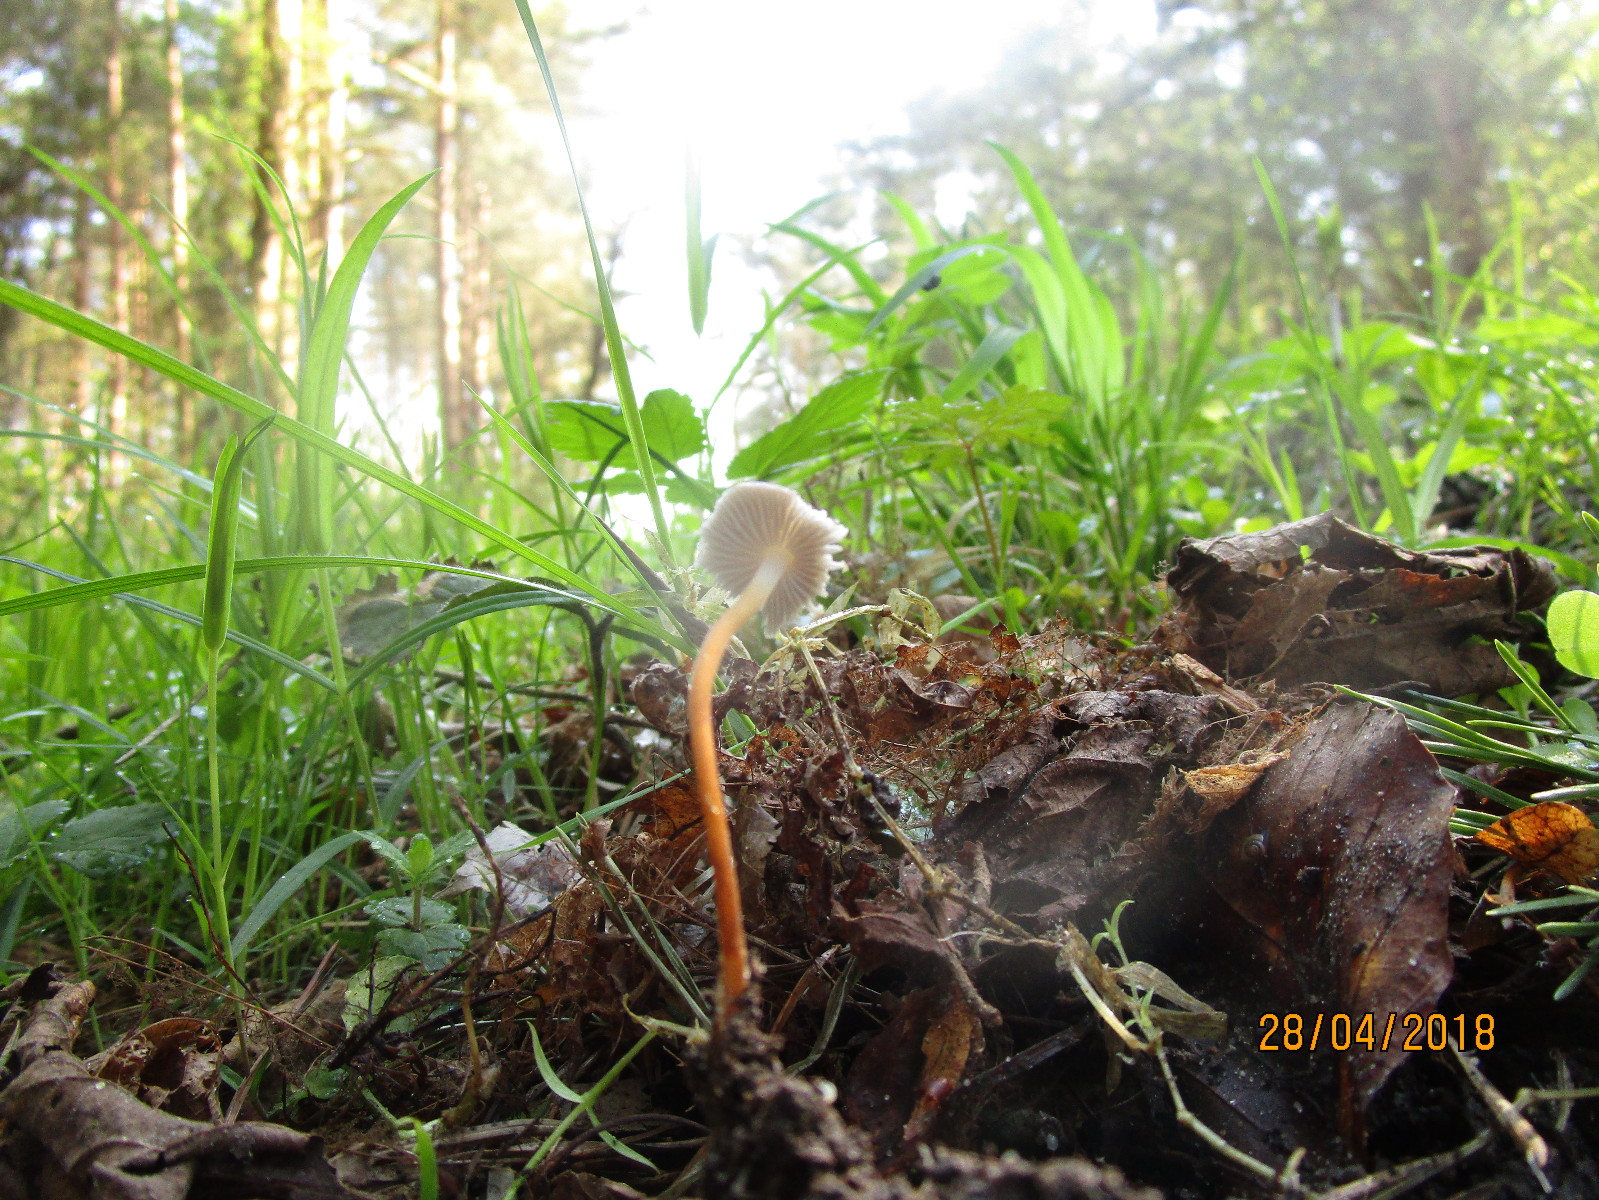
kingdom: Fungi
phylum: Basidiomycota
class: Agaricomycetes
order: Agaricales
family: Physalacriaceae
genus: Strobilurus
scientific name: Strobilurus tenacellus
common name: sommer-koglehat
